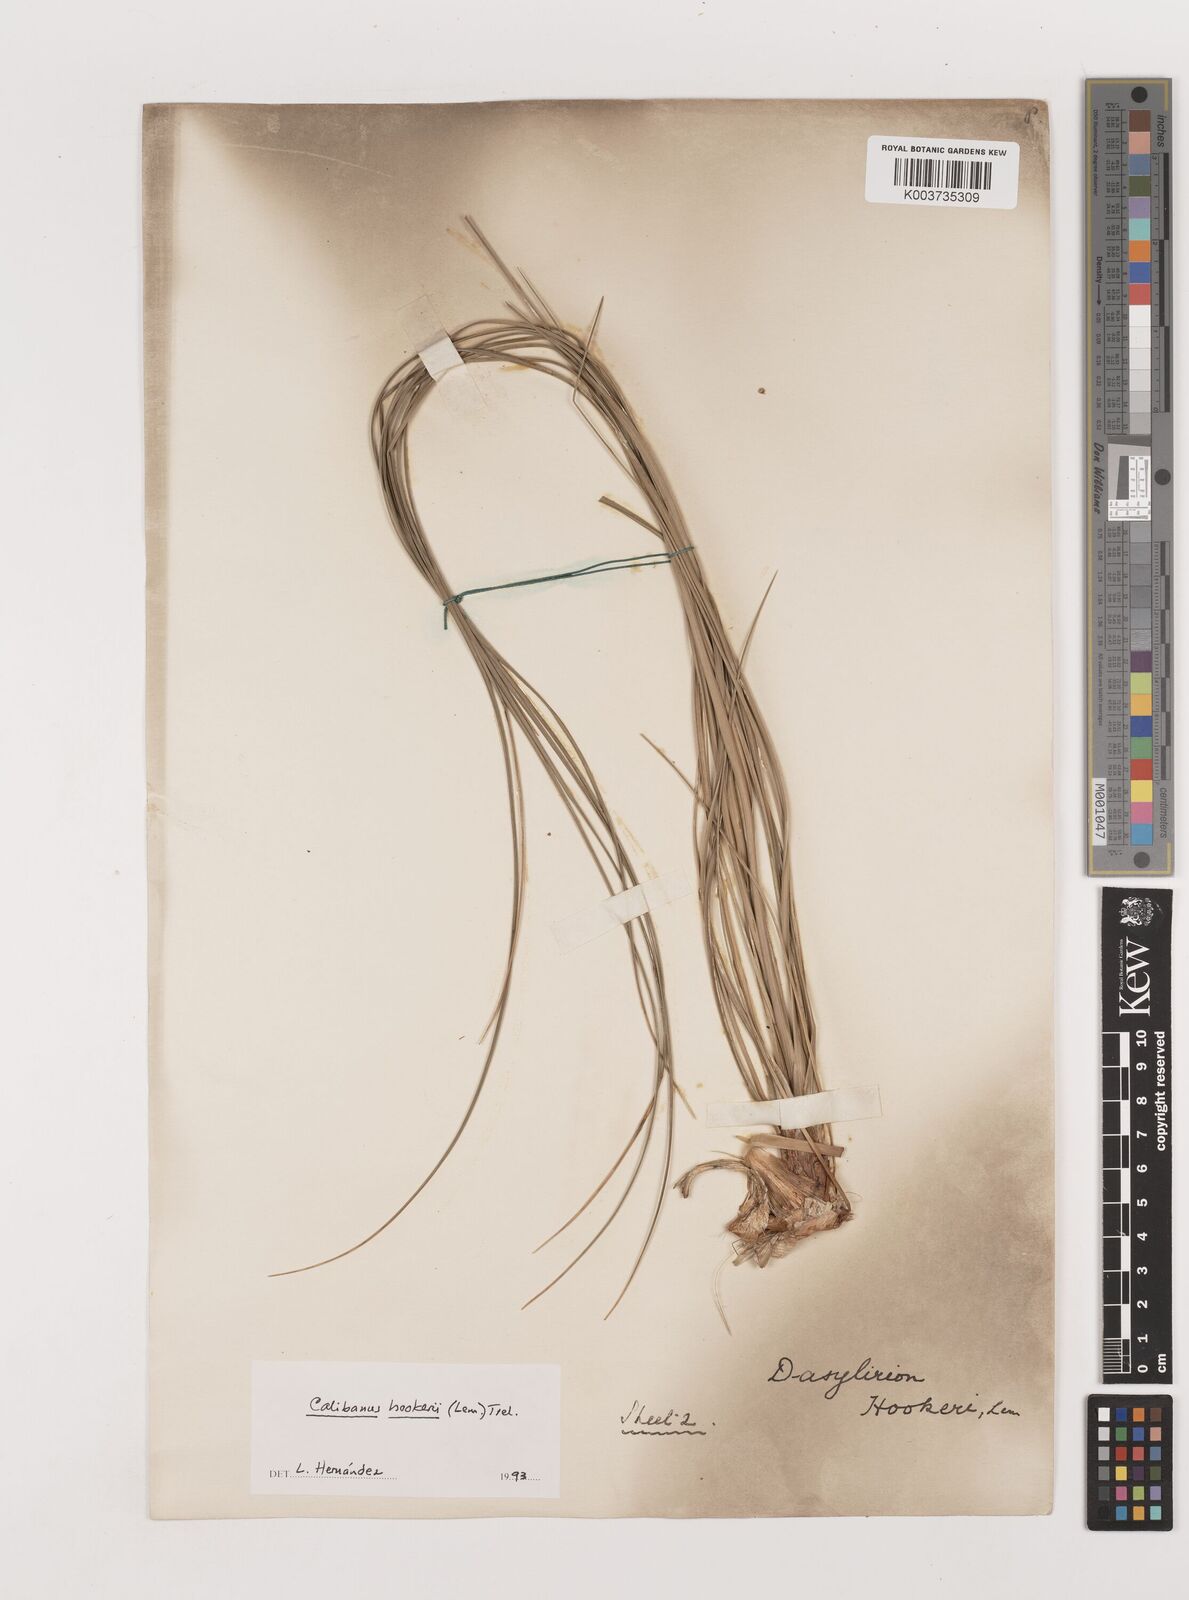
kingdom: Plantae
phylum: Tracheophyta
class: Liliopsida
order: Asparagales
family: Asparagaceae
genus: Beaucarnea
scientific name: Beaucarnea hookeri
